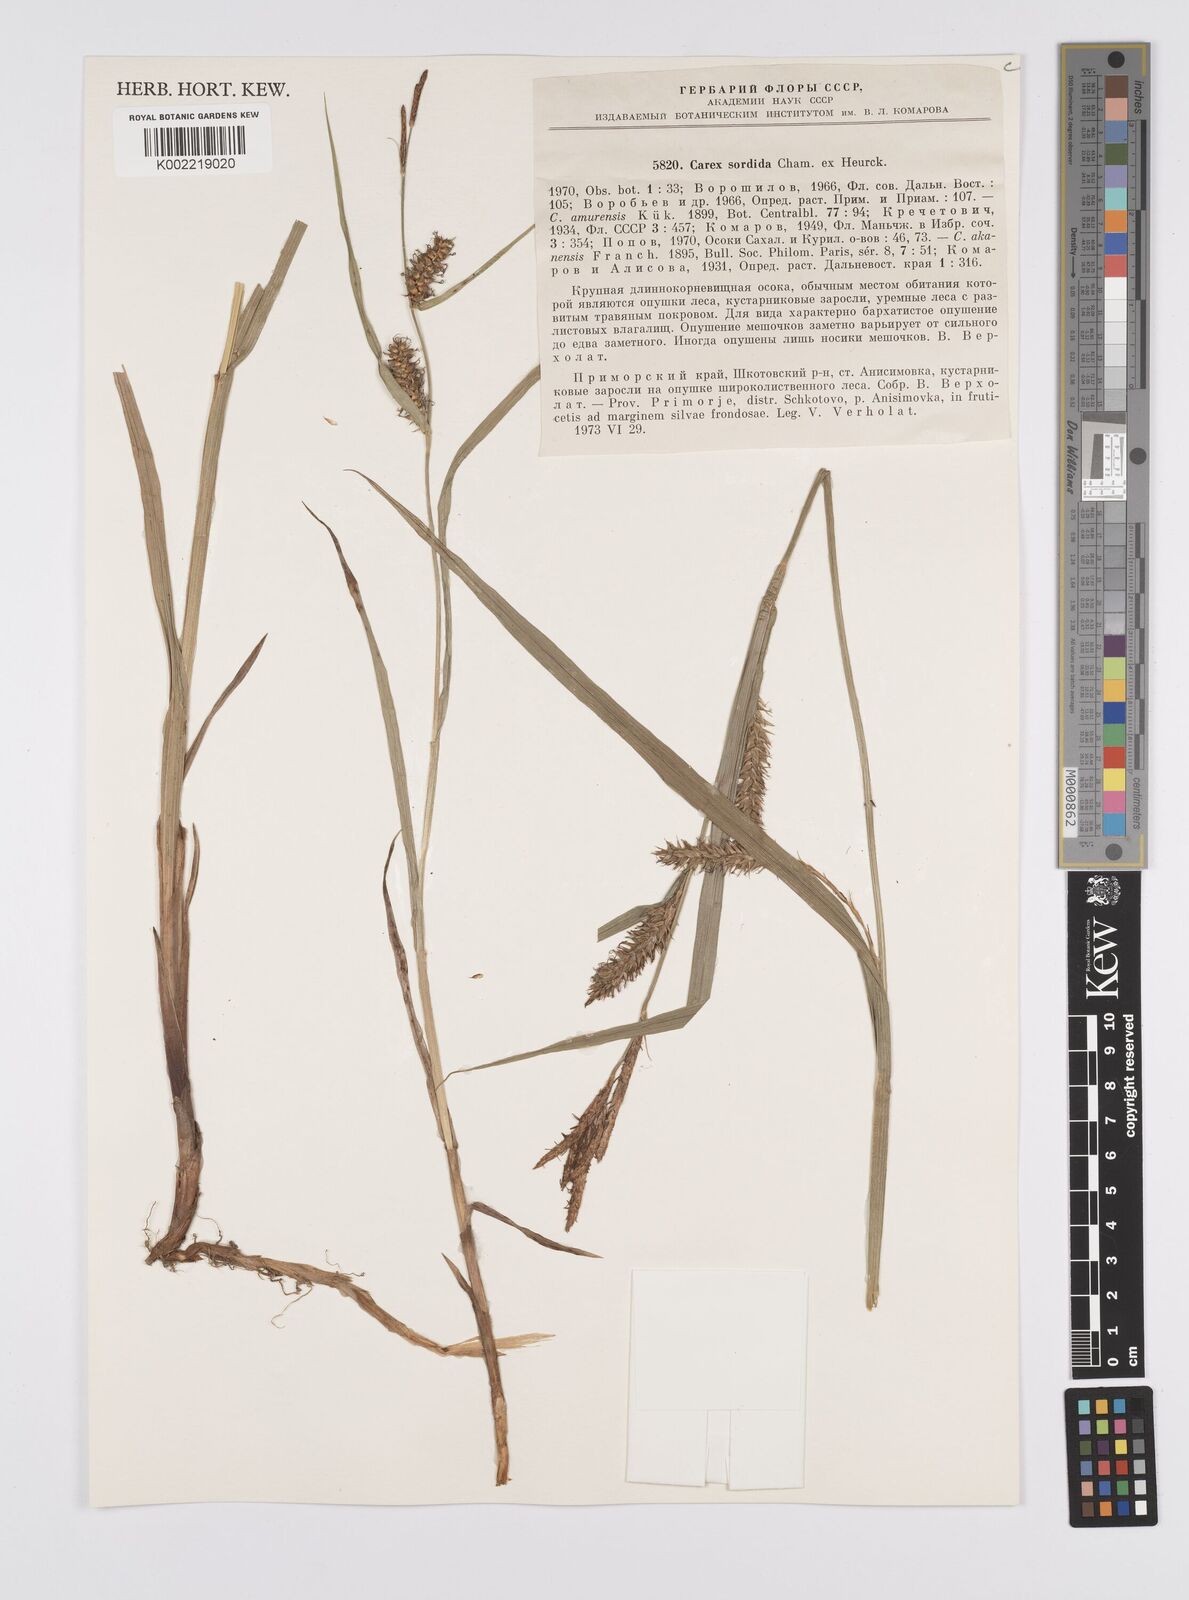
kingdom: Plantae
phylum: Tracheophyta
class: Liliopsida
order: Poales
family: Cyperaceae
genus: Carex
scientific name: Carex drymophila
